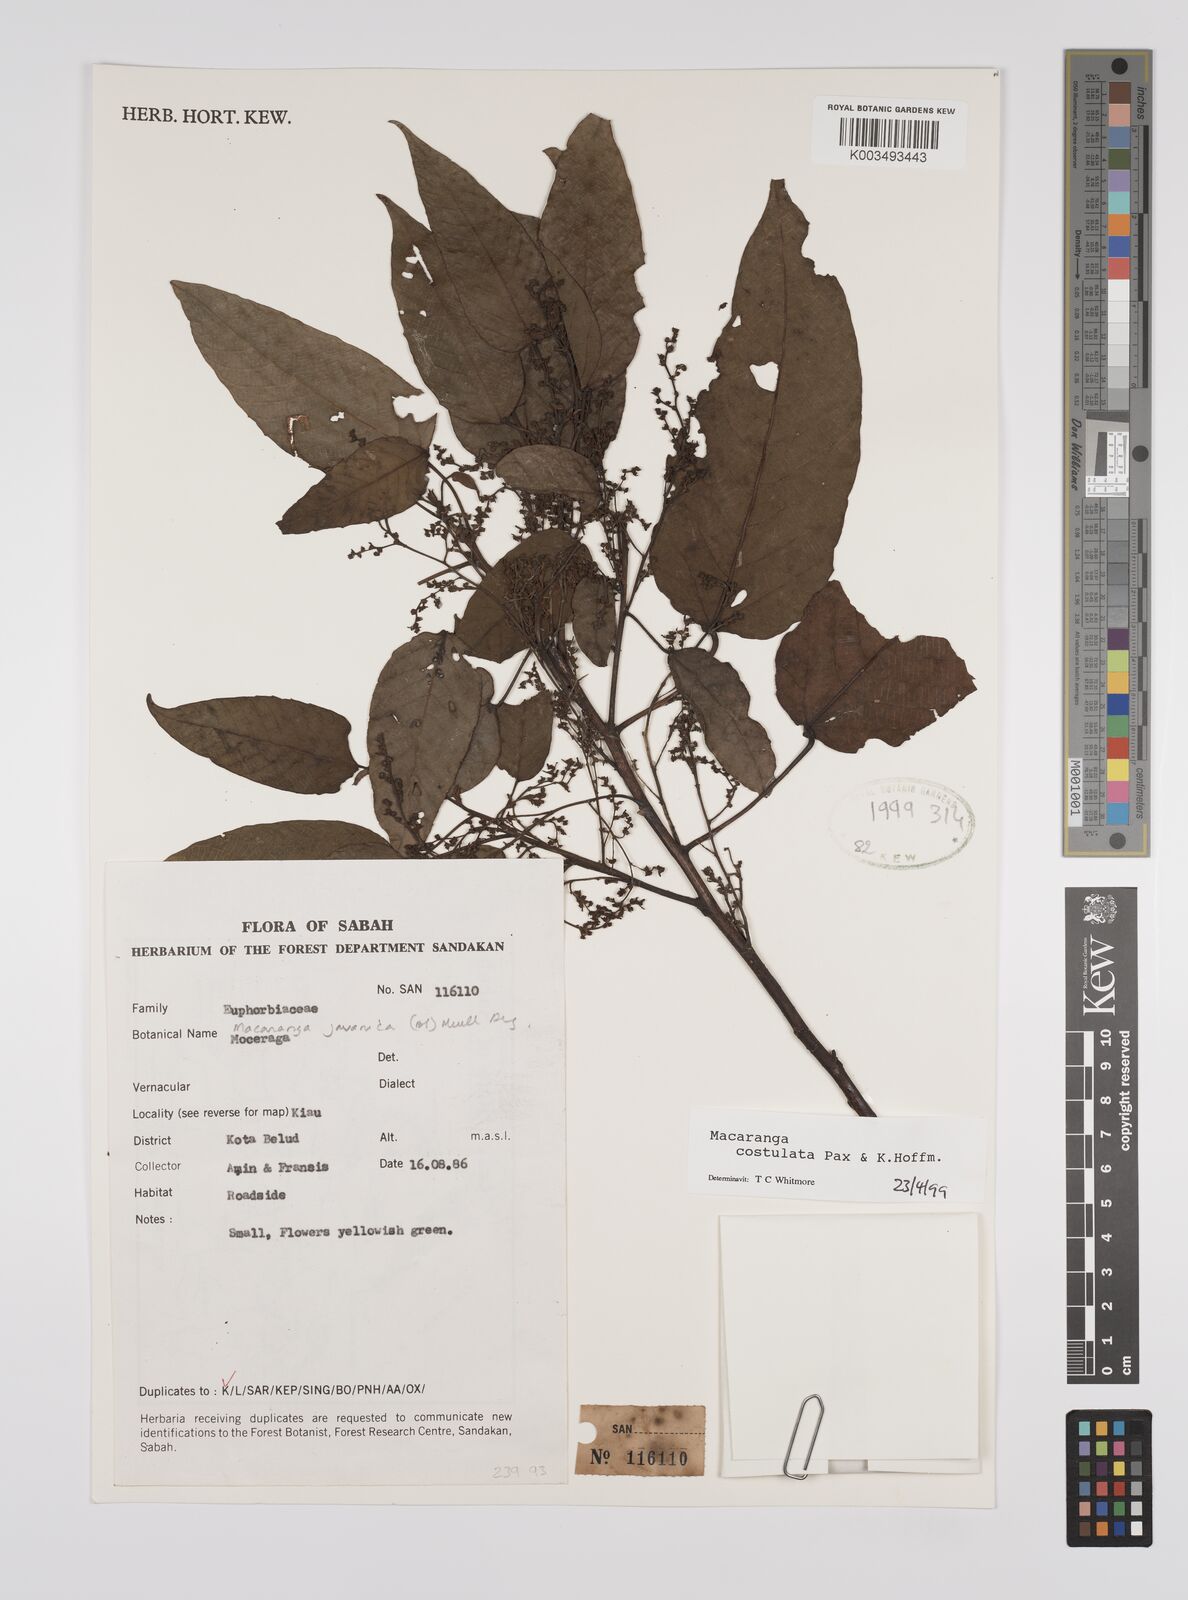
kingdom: Plantae
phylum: Tracheophyta
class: Magnoliopsida
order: Malpighiales
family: Euphorbiaceae
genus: Macaranga
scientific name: Macaranga costulata
